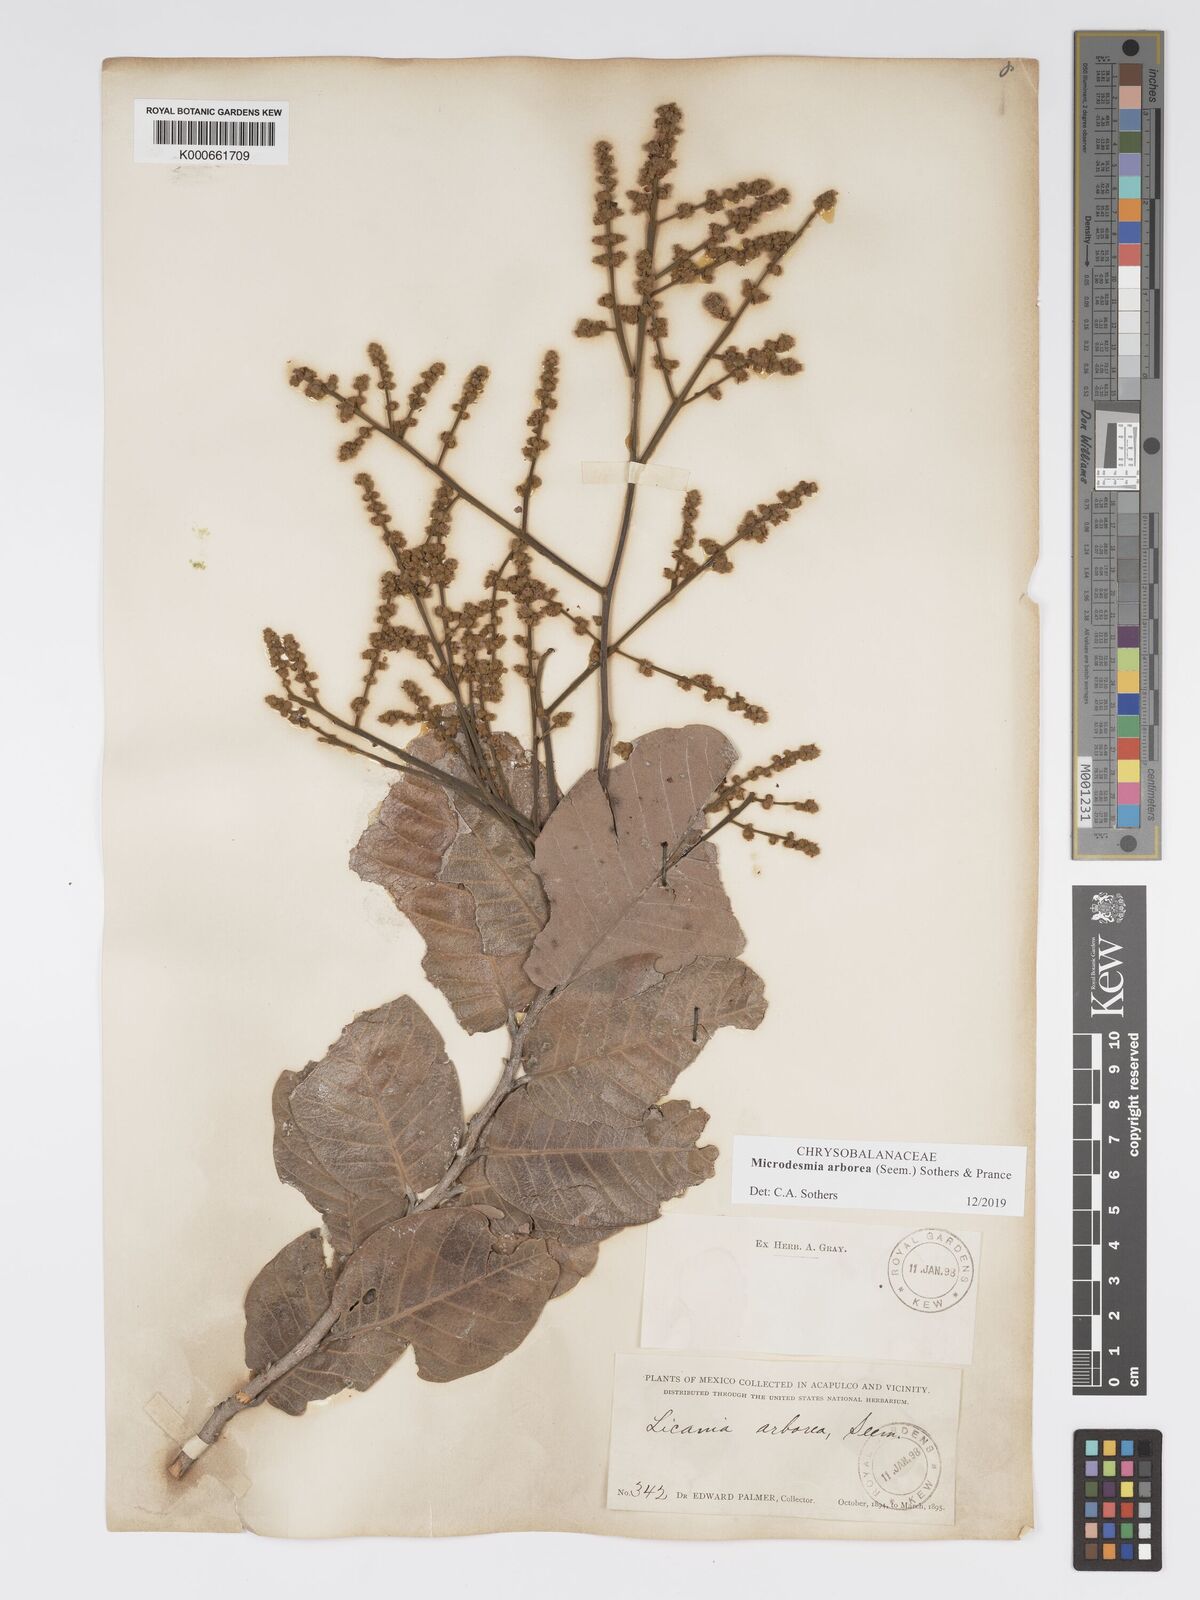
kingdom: Plantae
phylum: Tracheophyta
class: Magnoliopsida
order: Malpighiales
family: Chrysobalanaceae
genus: Licania
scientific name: Licania
